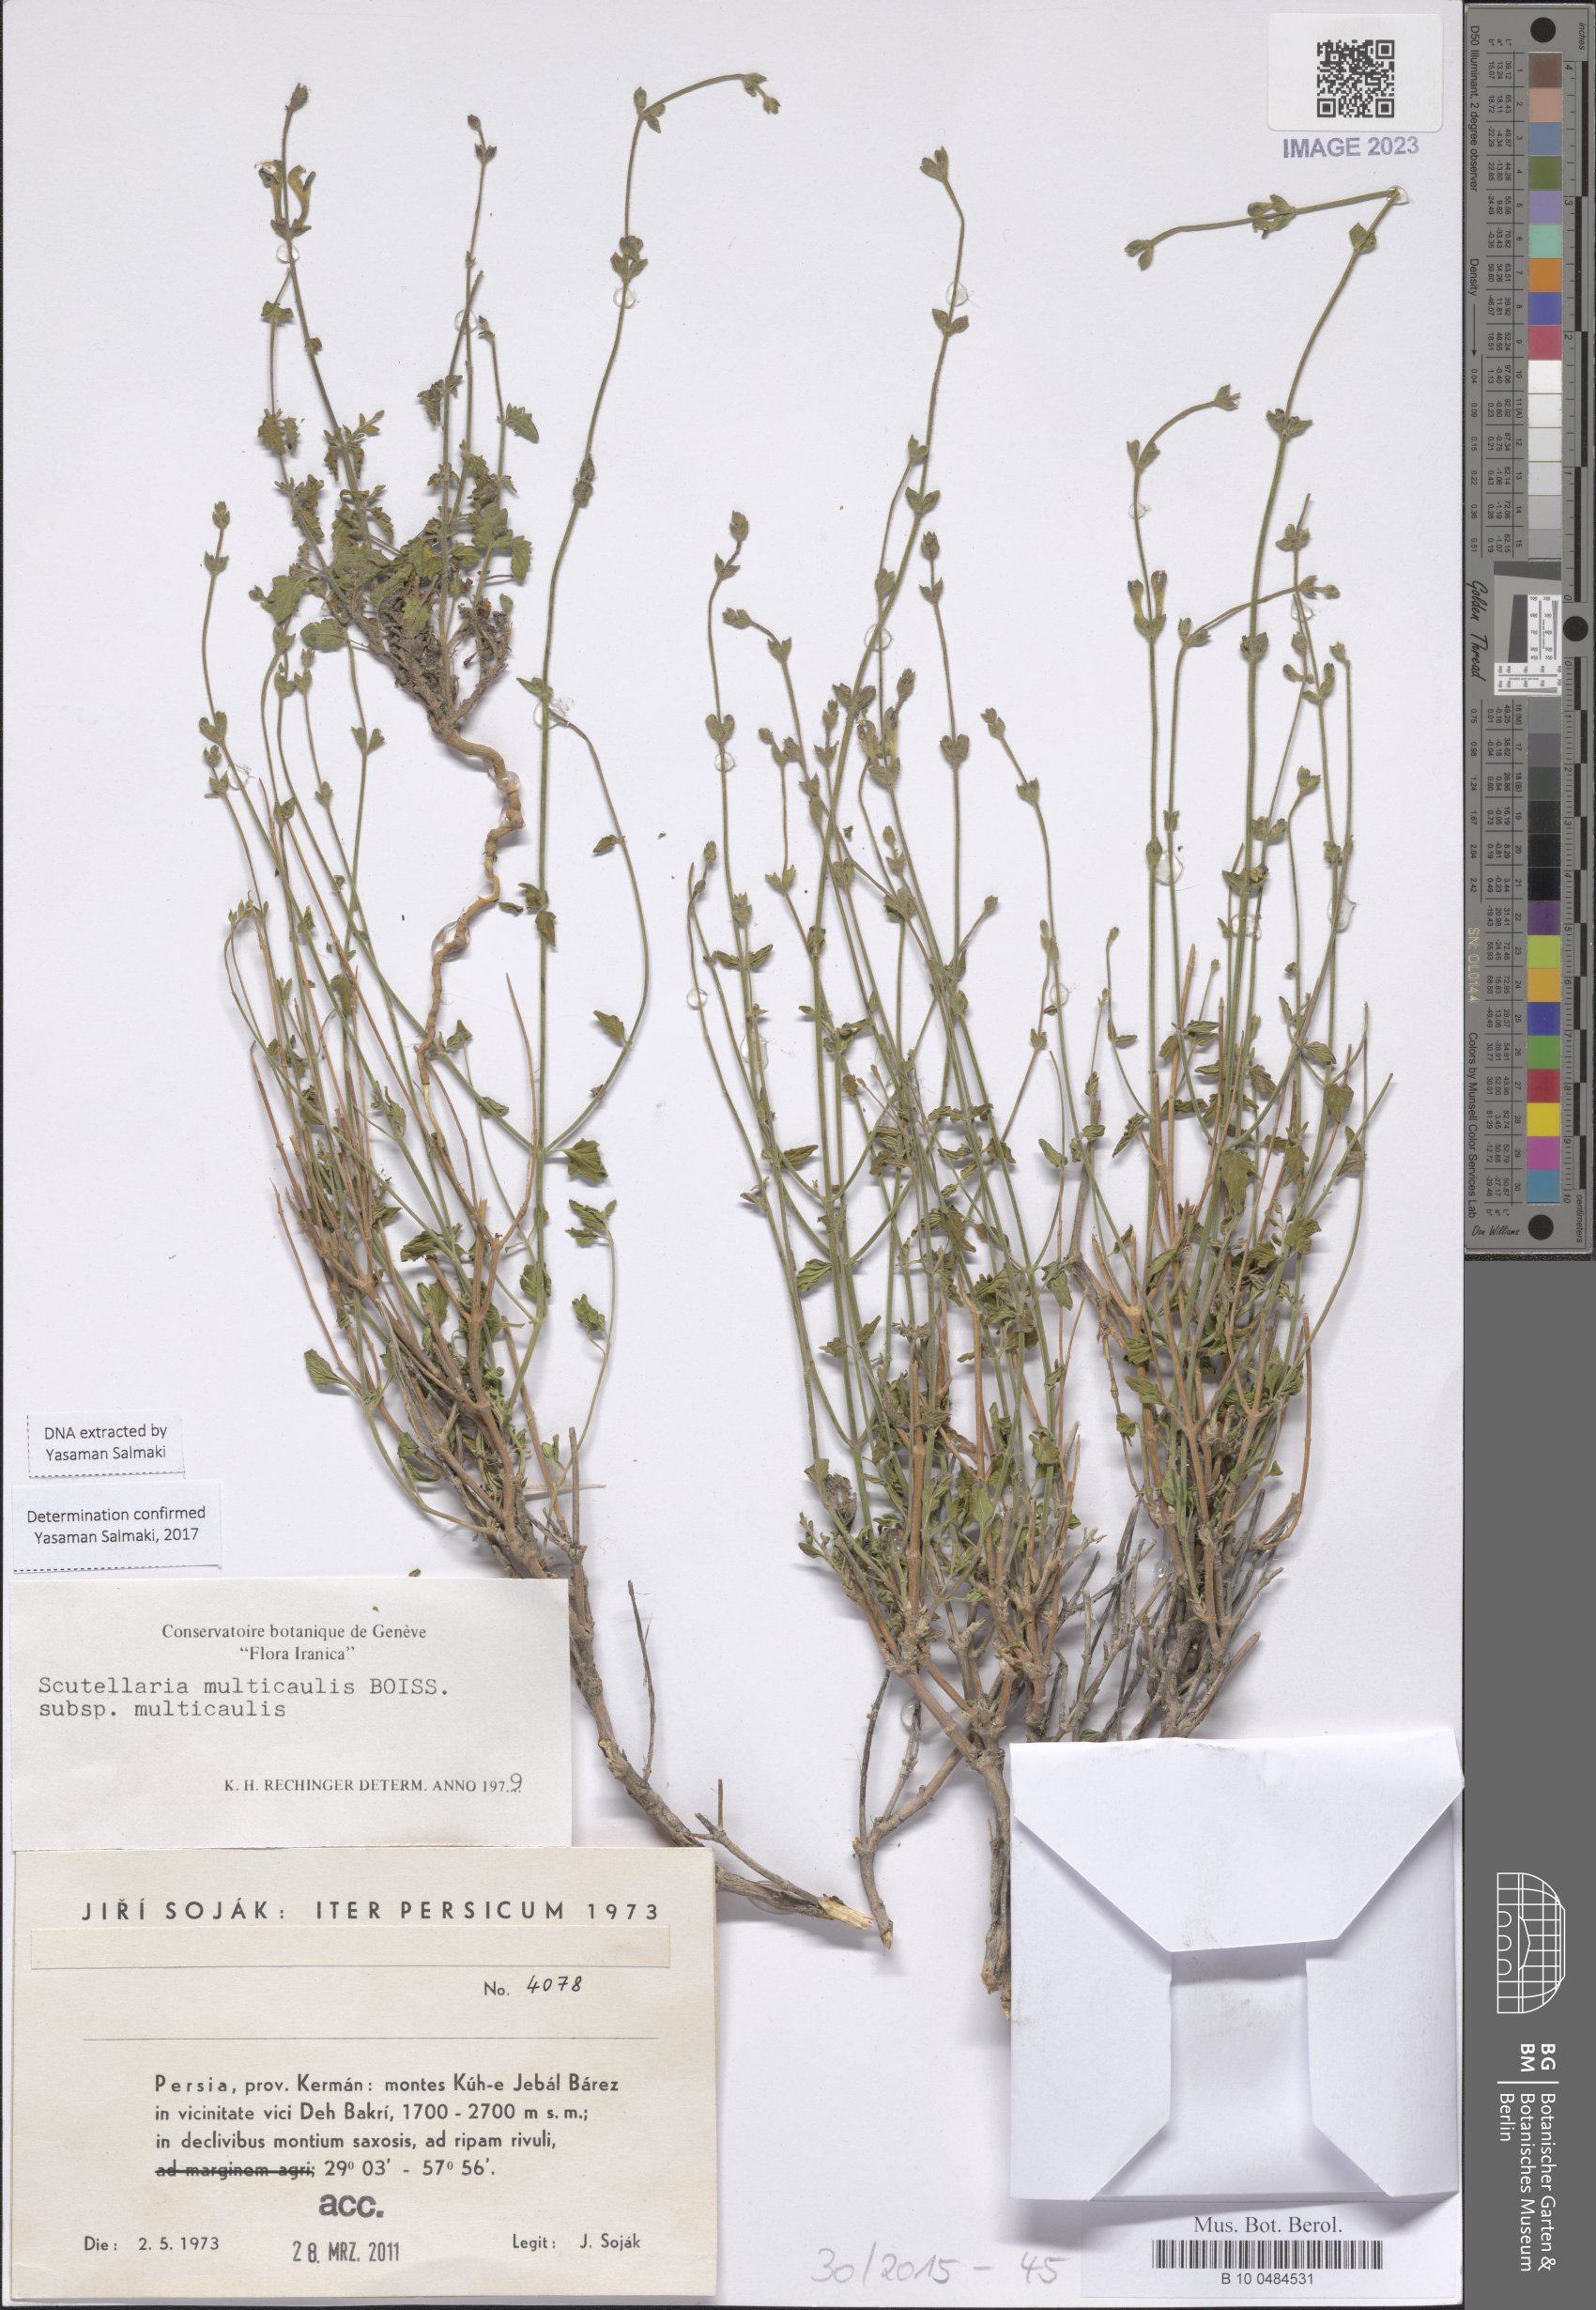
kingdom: Plantae
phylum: Tracheophyta
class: Magnoliopsida
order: Lamiales
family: Lamiaceae
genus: Scutellaria
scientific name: Scutellaria multicaulis
